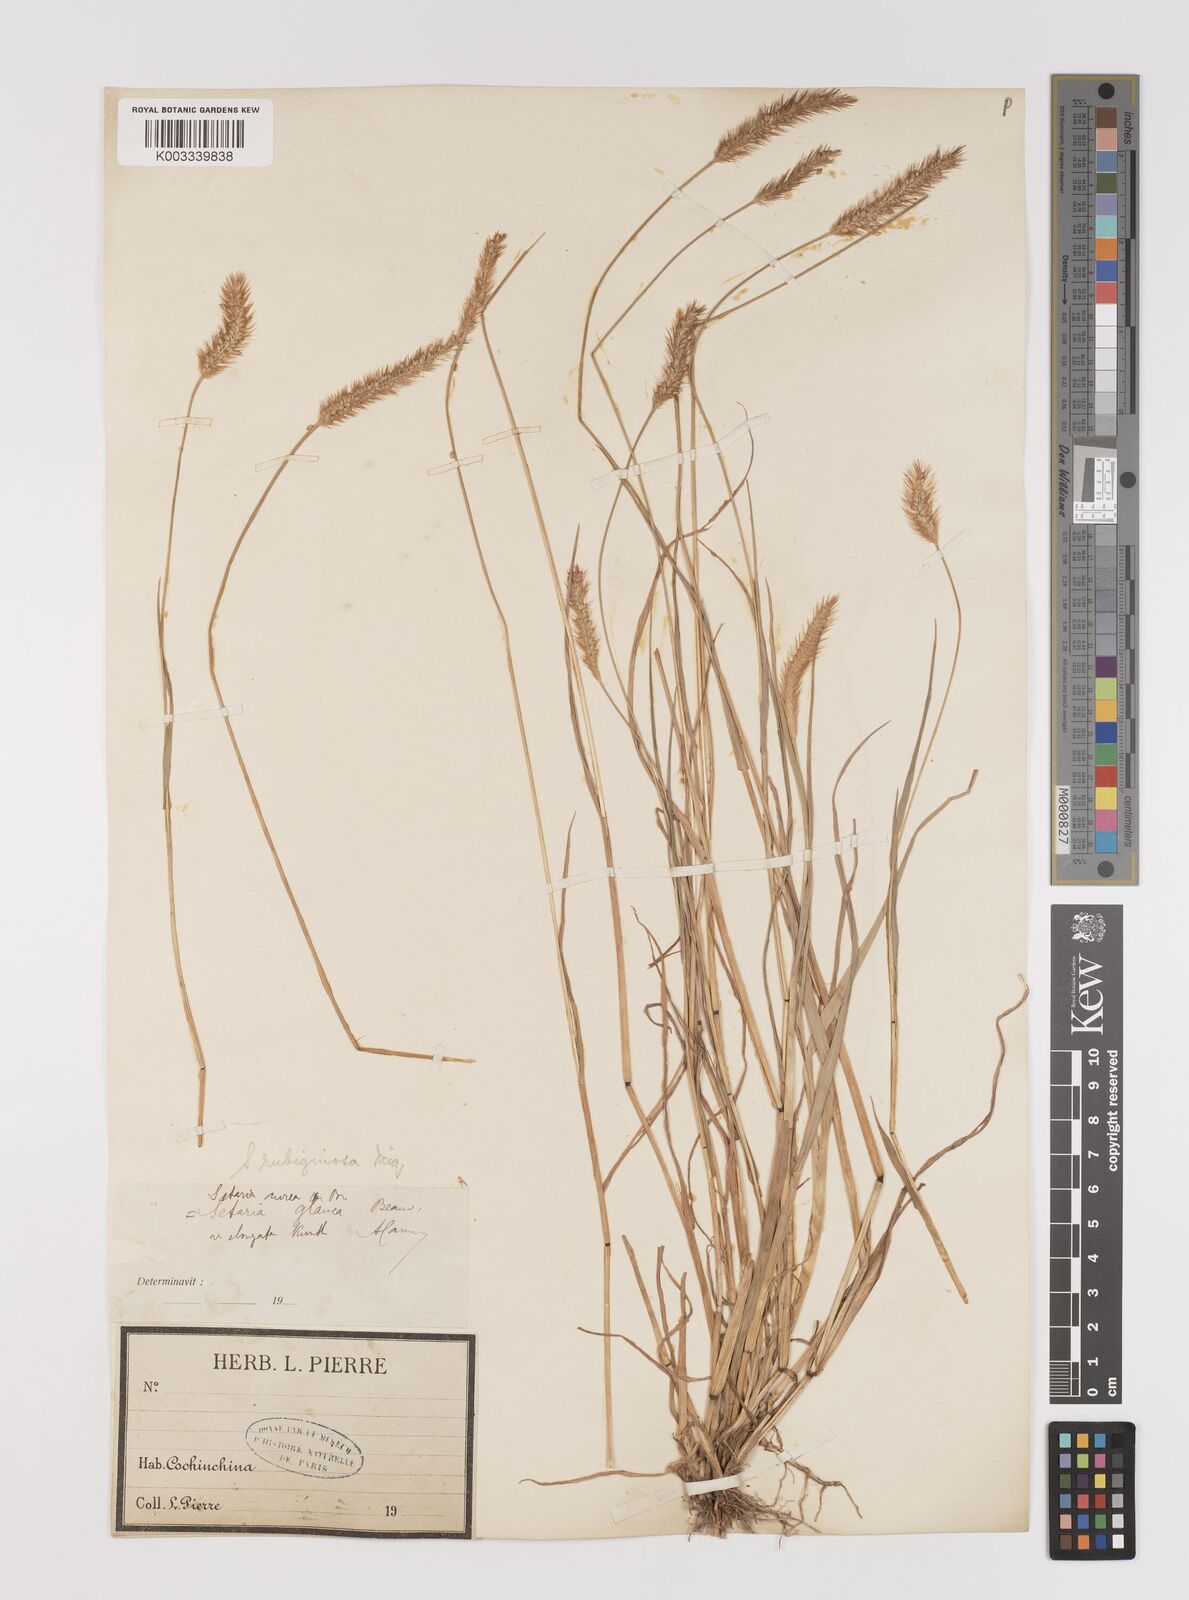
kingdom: Plantae
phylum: Tracheophyta
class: Liliopsida
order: Poales
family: Poaceae
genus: Setaria
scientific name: Setaria pumila
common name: Yellow bristle-grass
